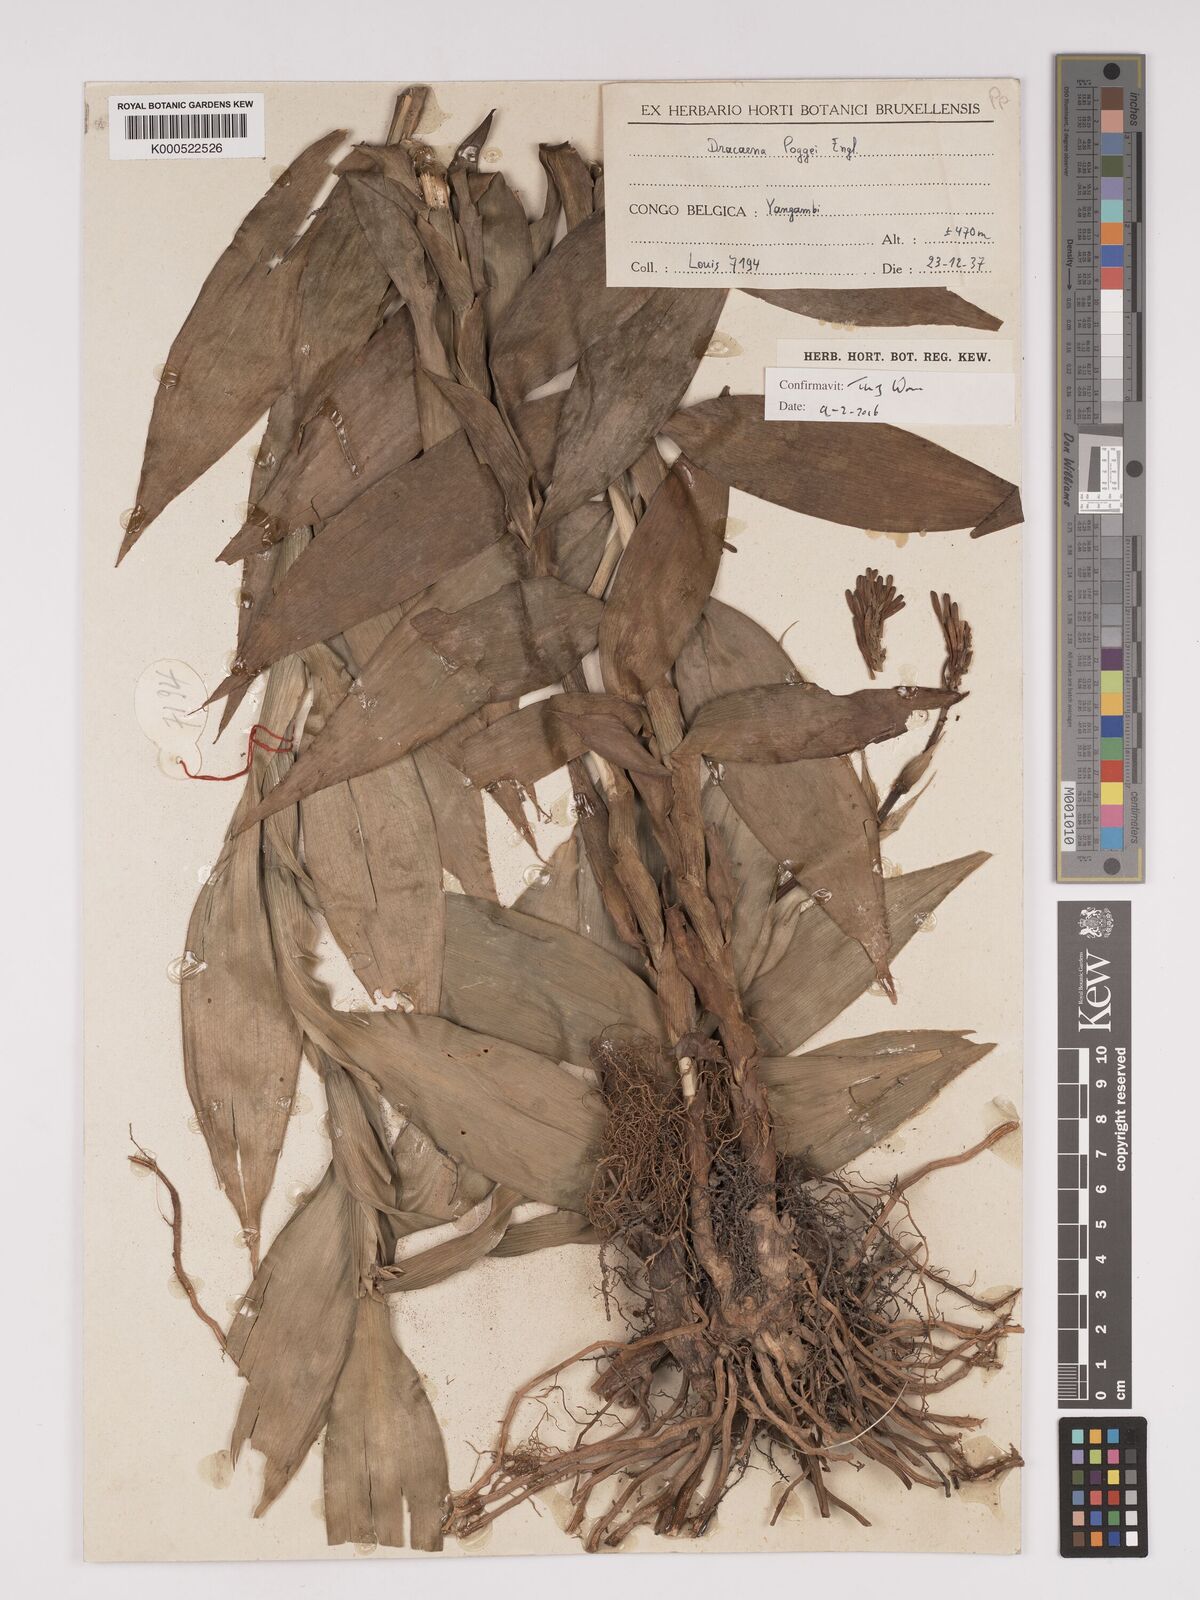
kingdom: Plantae
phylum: Tracheophyta
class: Liliopsida
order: Asparagales
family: Asparagaceae
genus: Dracaena
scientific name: Dracaena sanderiana
